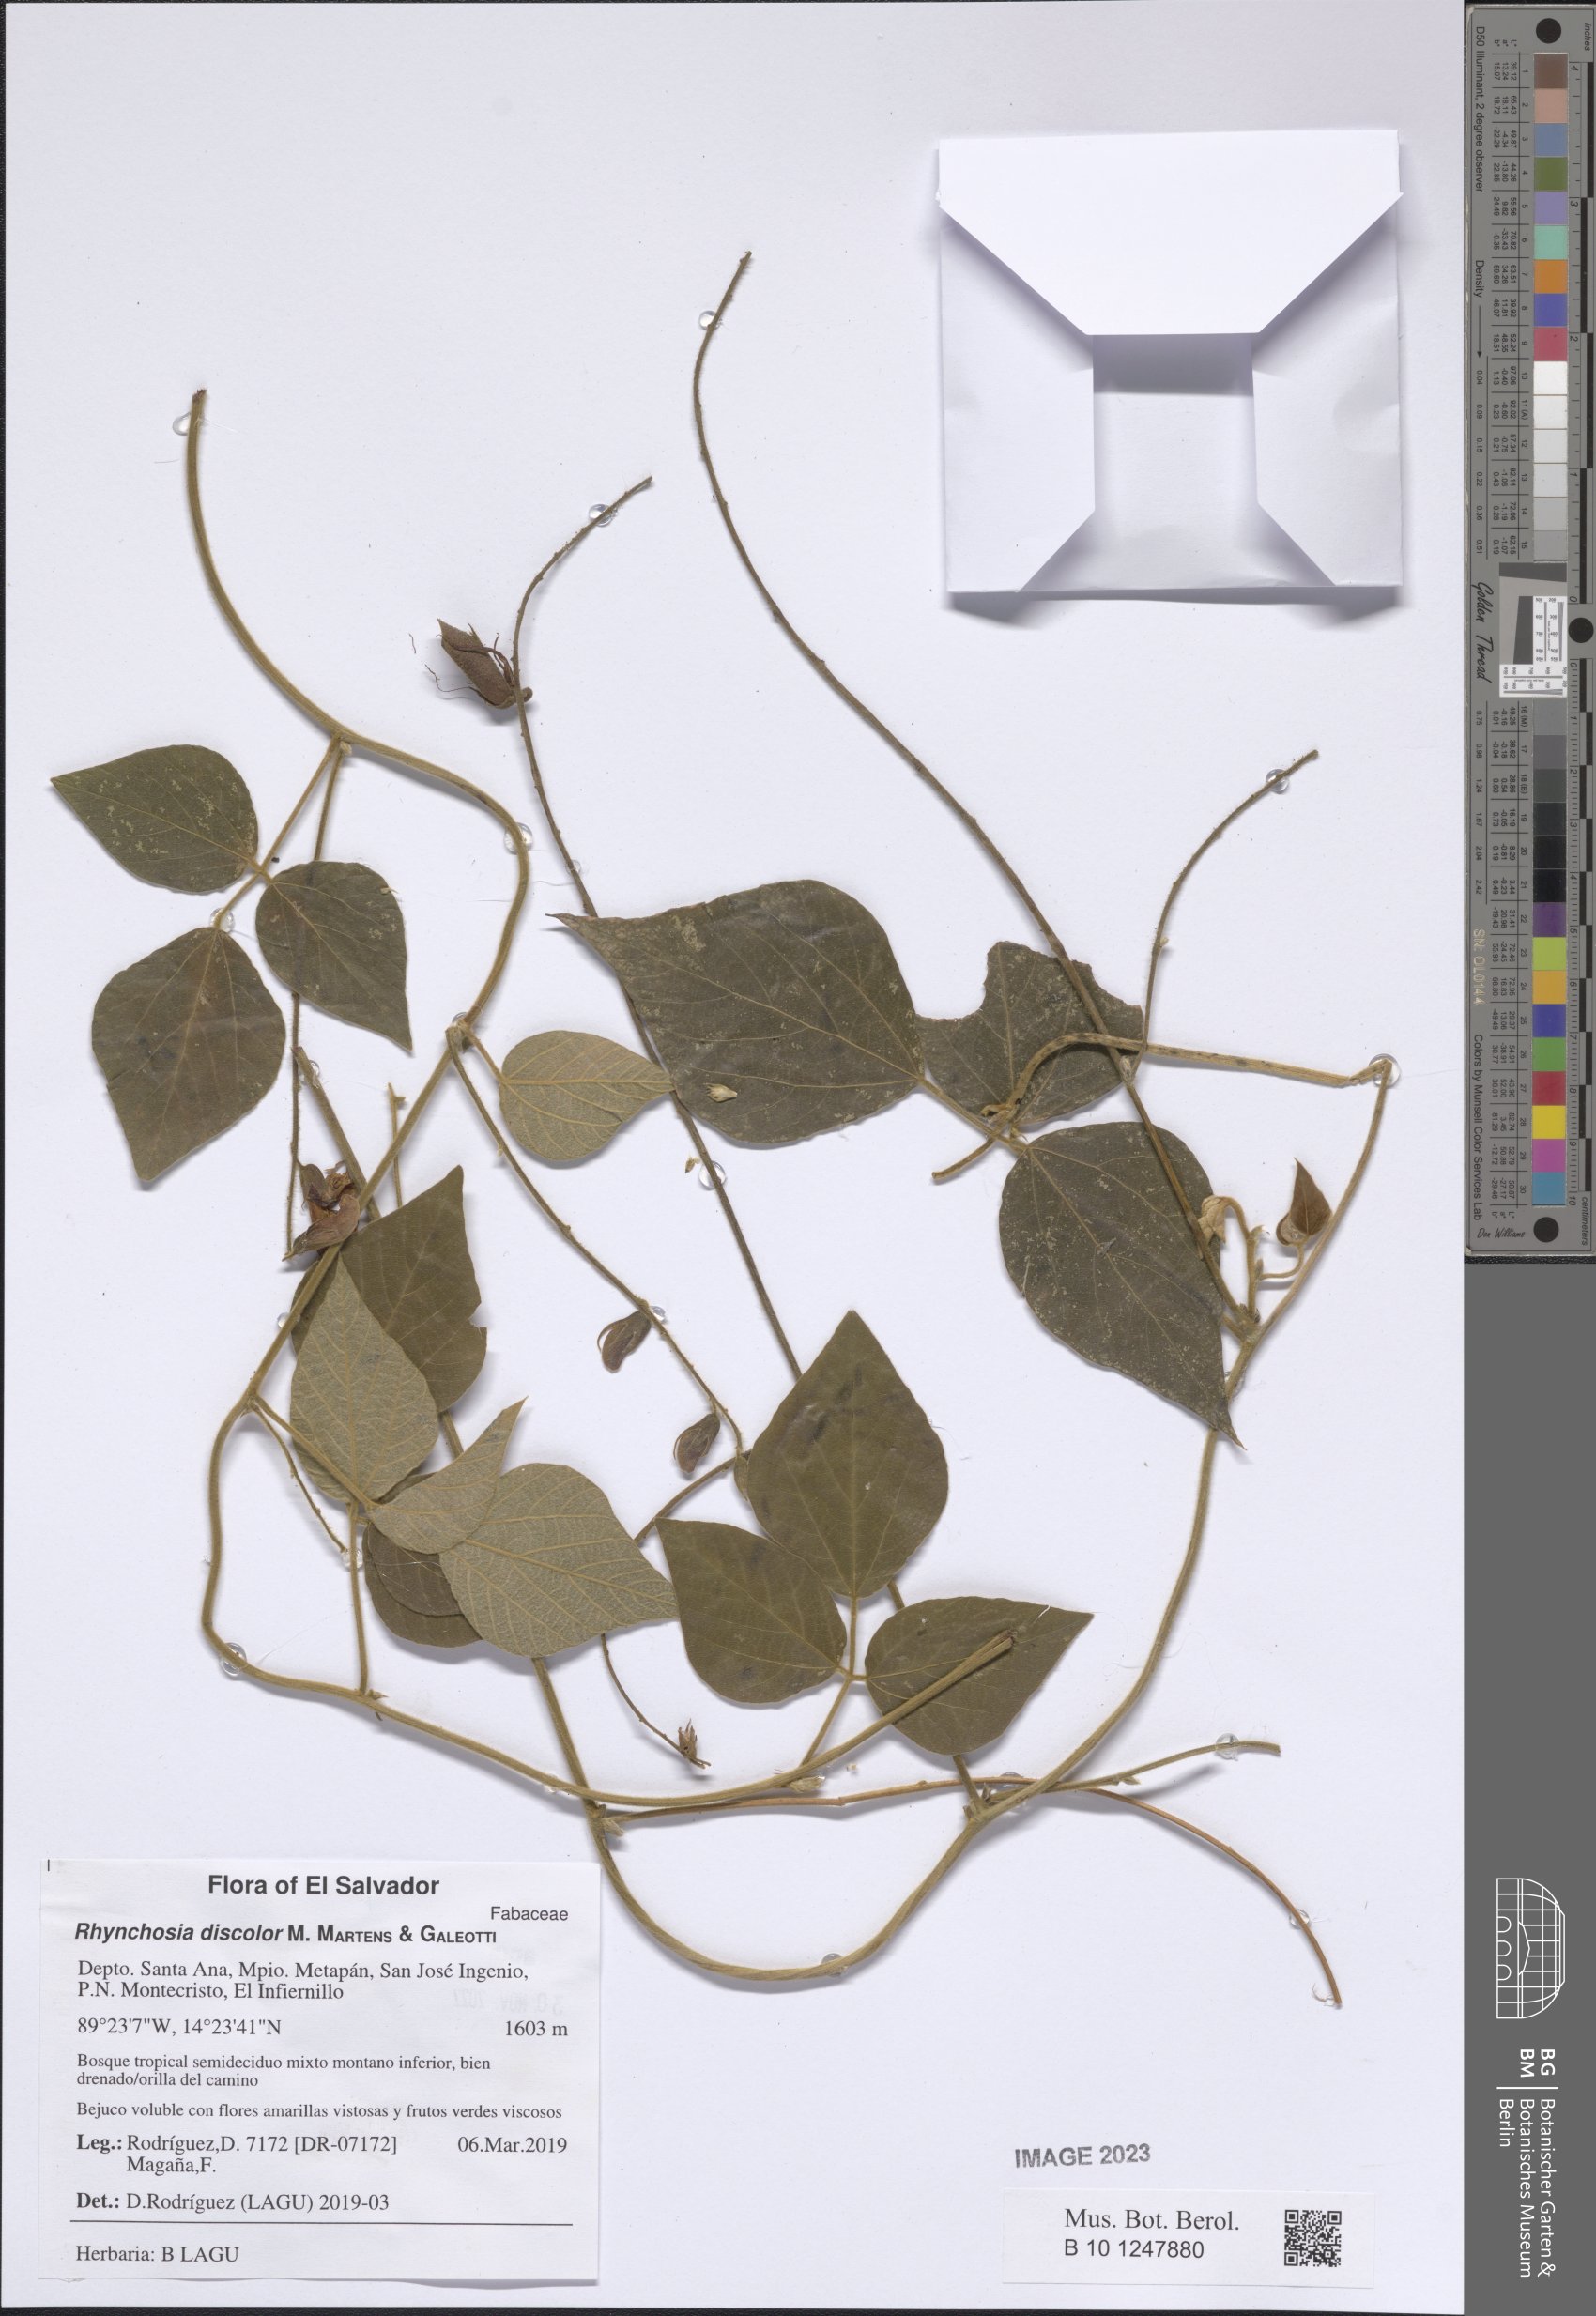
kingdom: Plantae
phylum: Tracheophyta
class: Magnoliopsida
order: Fabales
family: Fabaceae
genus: Rhynchosia
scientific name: Rhynchosia discolor
